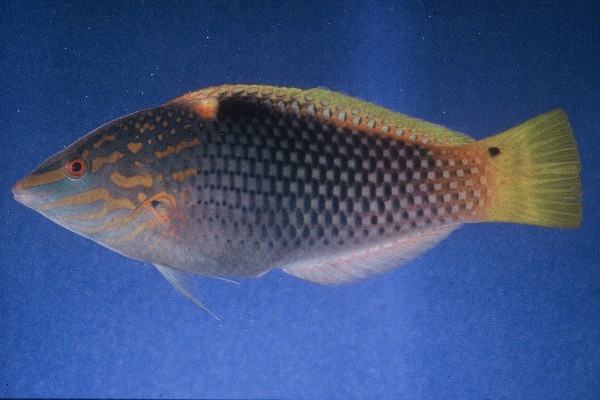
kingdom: Animalia
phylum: Chordata
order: Perciformes
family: Labridae
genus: Halichoeres
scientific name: Halichoeres hortulanus
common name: Checkerboard wrasse
